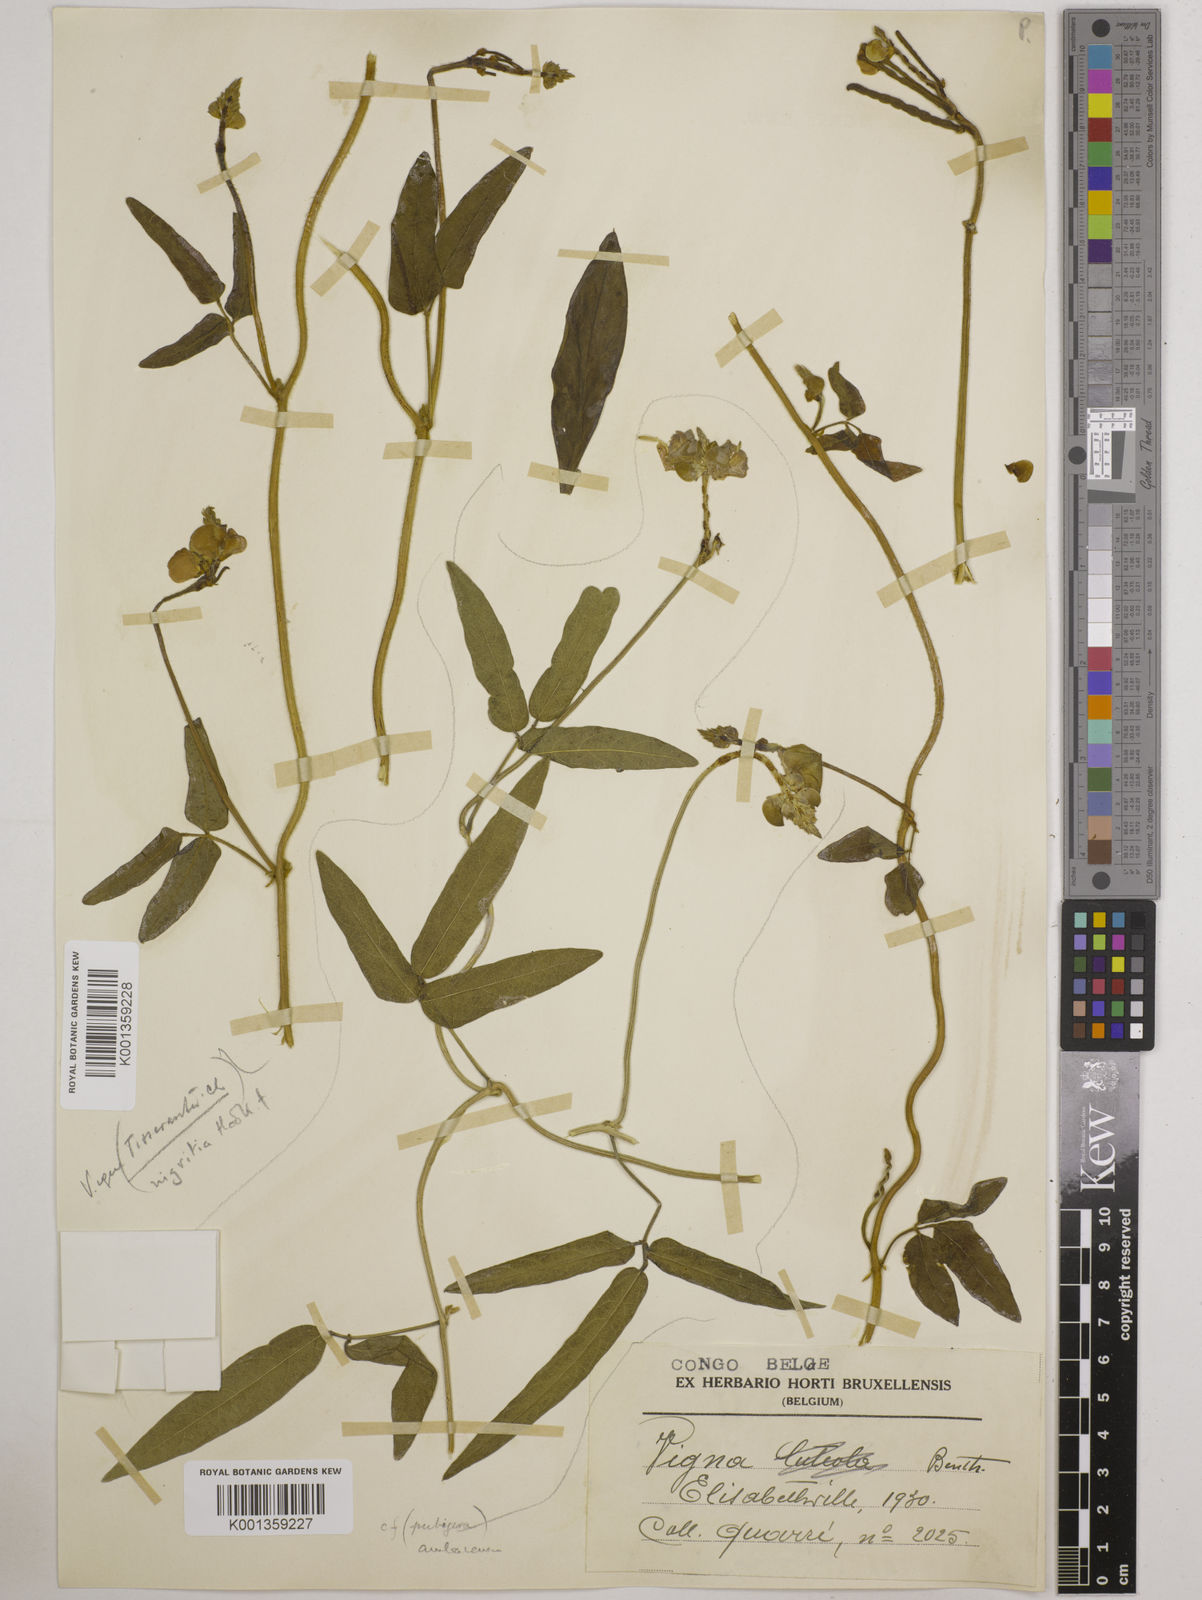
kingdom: Plantae
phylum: Tracheophyta
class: Magnoliopsida
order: Fabales
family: Fabaceae
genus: Vigna
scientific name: Vigna nigritia
